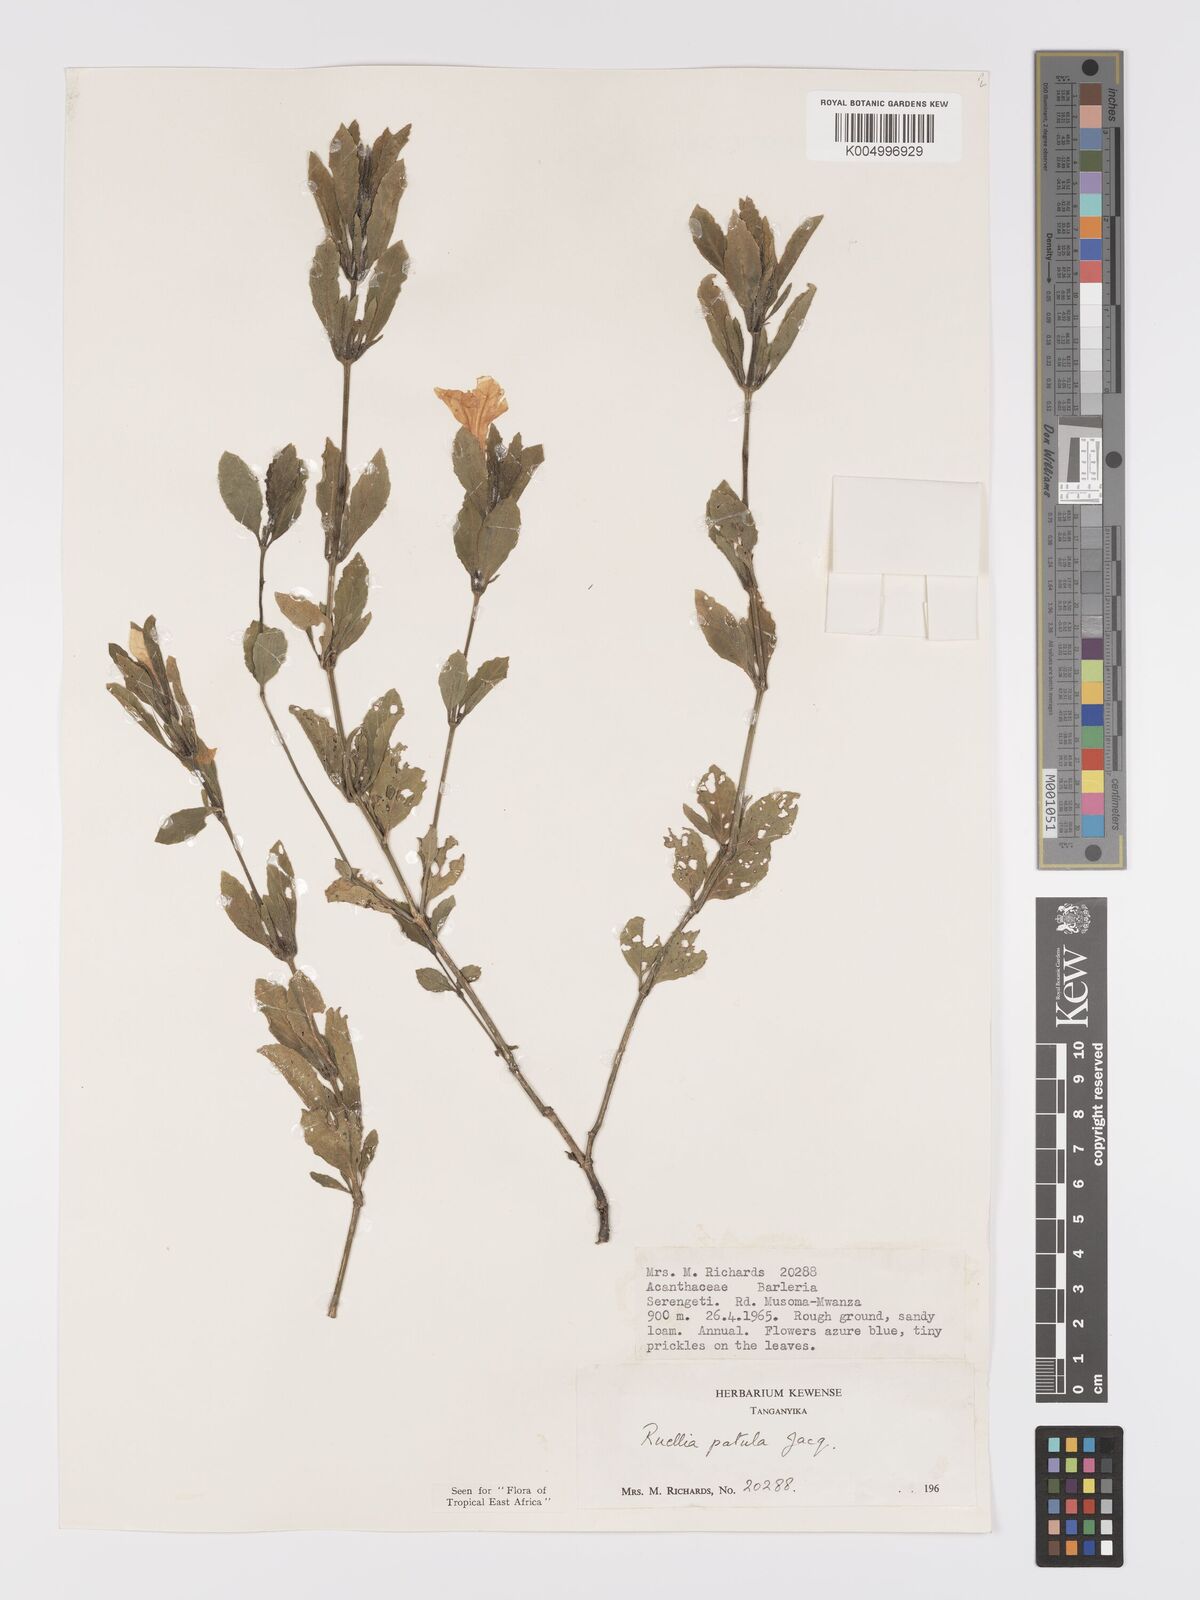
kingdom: Plantae
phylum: Tracheophyta
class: Magnoliopsida
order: Lamiales
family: Acanthaceae
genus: Ruellia
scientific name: Ruellia patula
